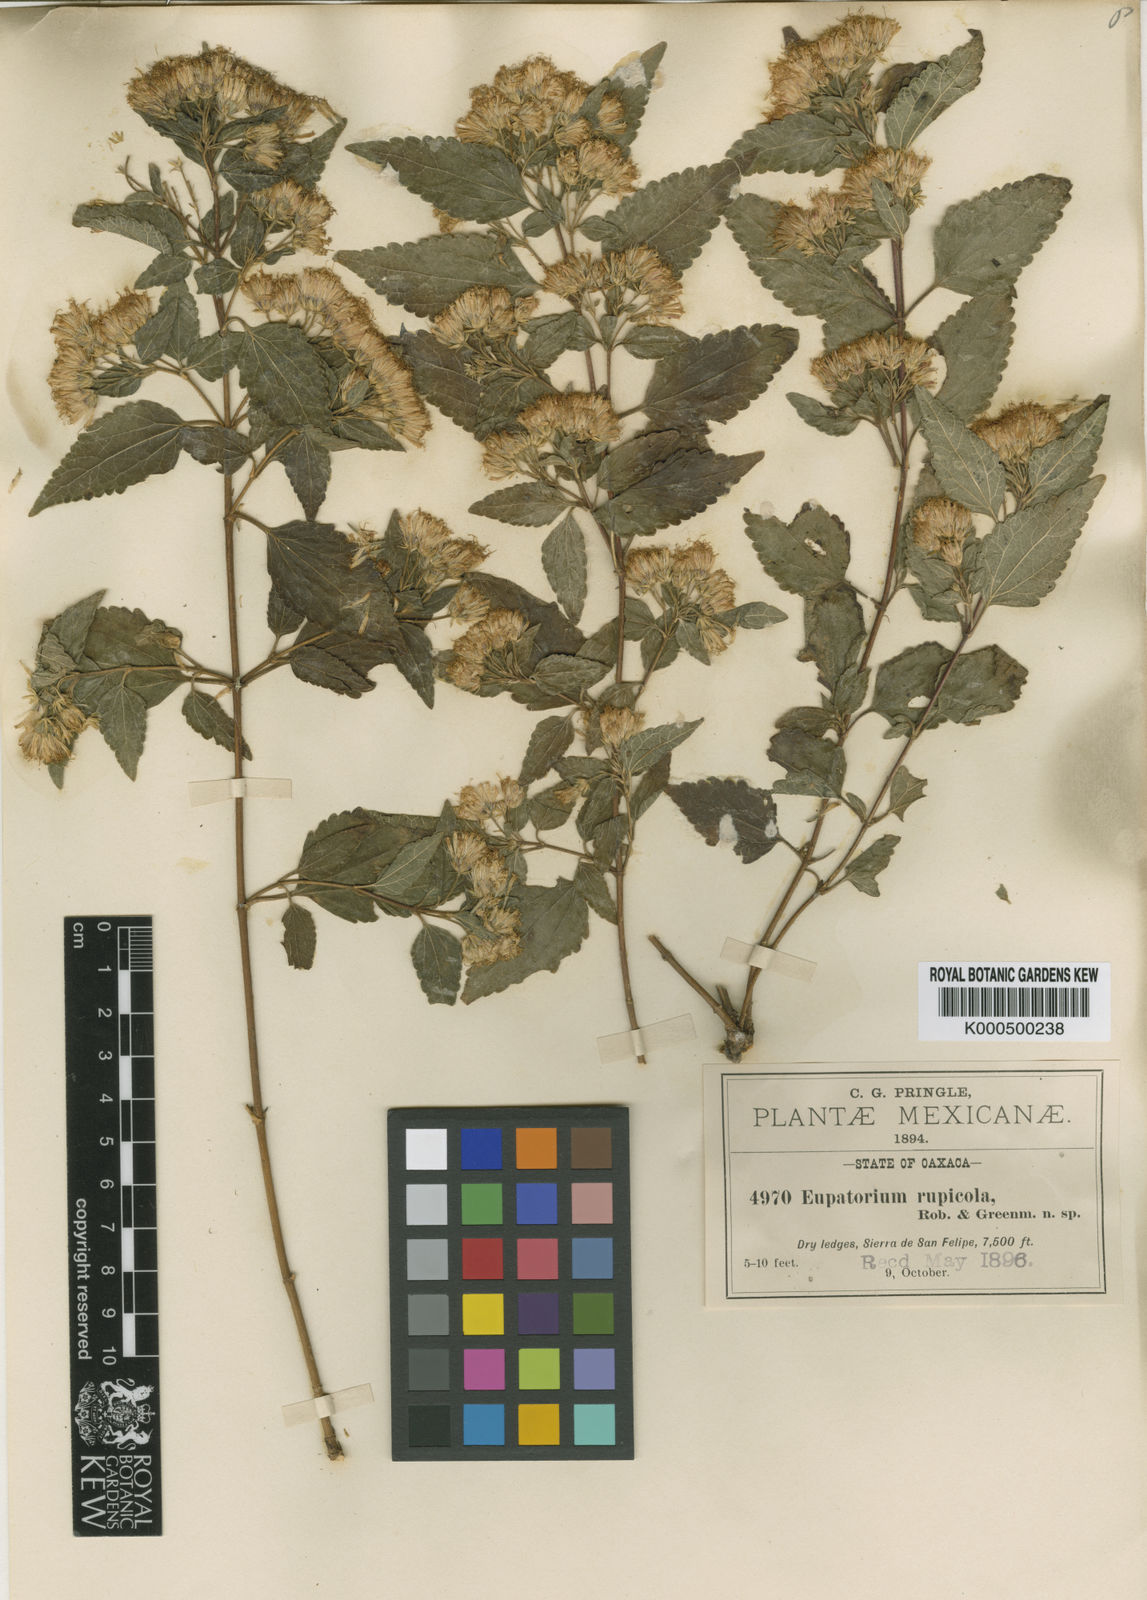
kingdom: Plantae
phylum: Tracheophyta
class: Magnoliopsida
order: Asterales
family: Asteraceae
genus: Ageratina
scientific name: Ageratina rupicola
